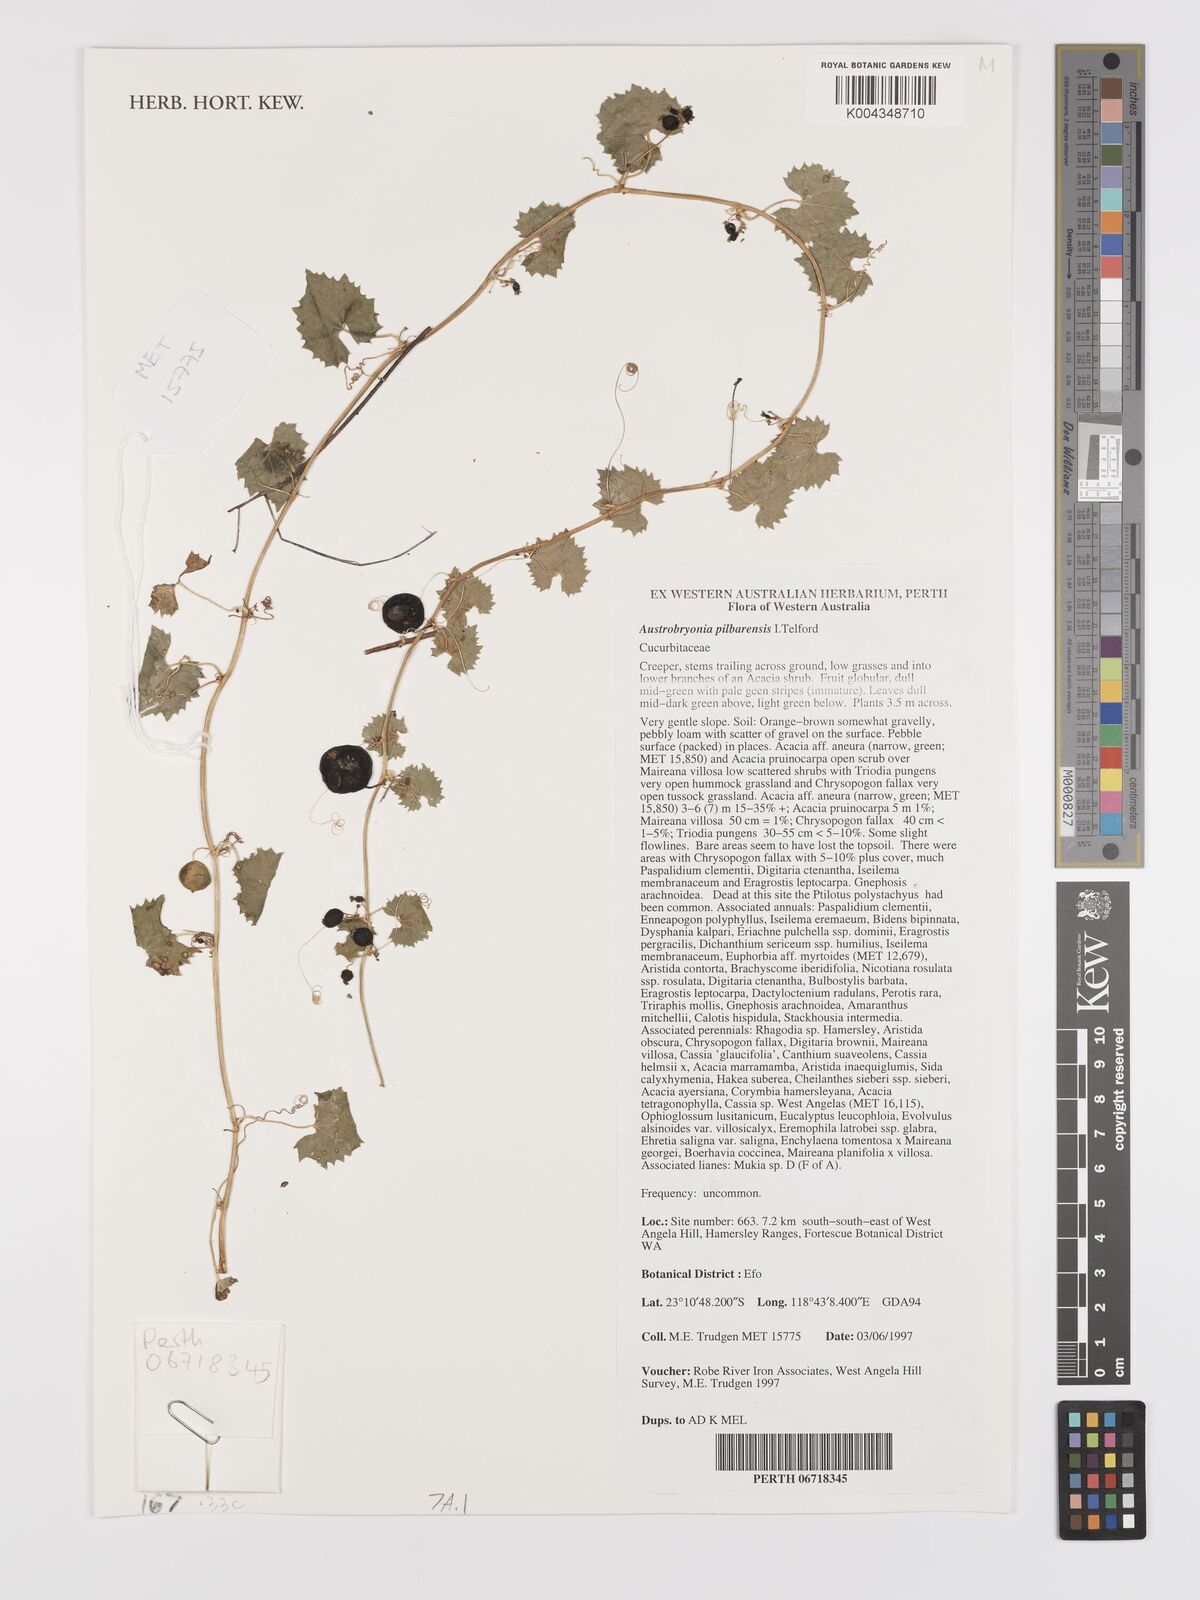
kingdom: Plantae
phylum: Tracheophyta
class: Magnoliopsida
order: Cucurbitales
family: Cucurbitaceae
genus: Austrobryonia
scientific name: Austrobryonia pilbarensis
